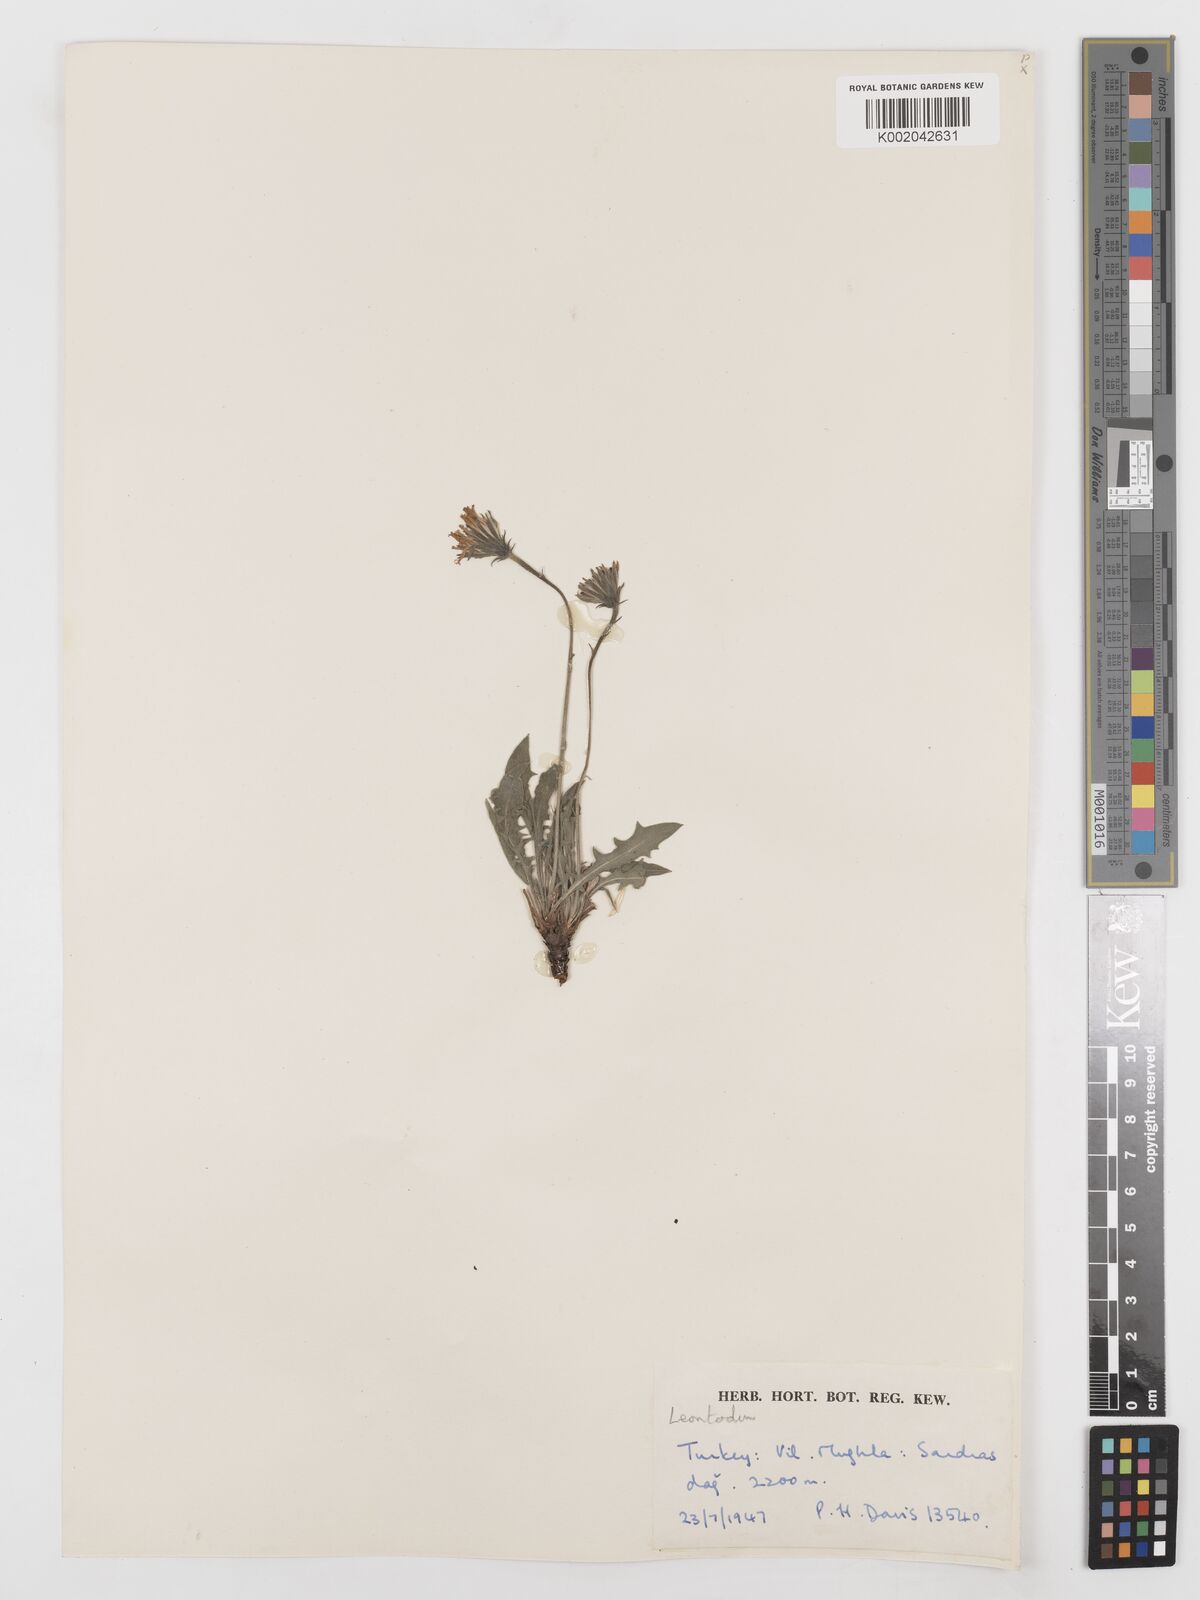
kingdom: Plantae
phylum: Tracheophyta
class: Magnoliopsida
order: Asterales
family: Asteraceae
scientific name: Asteraceae
